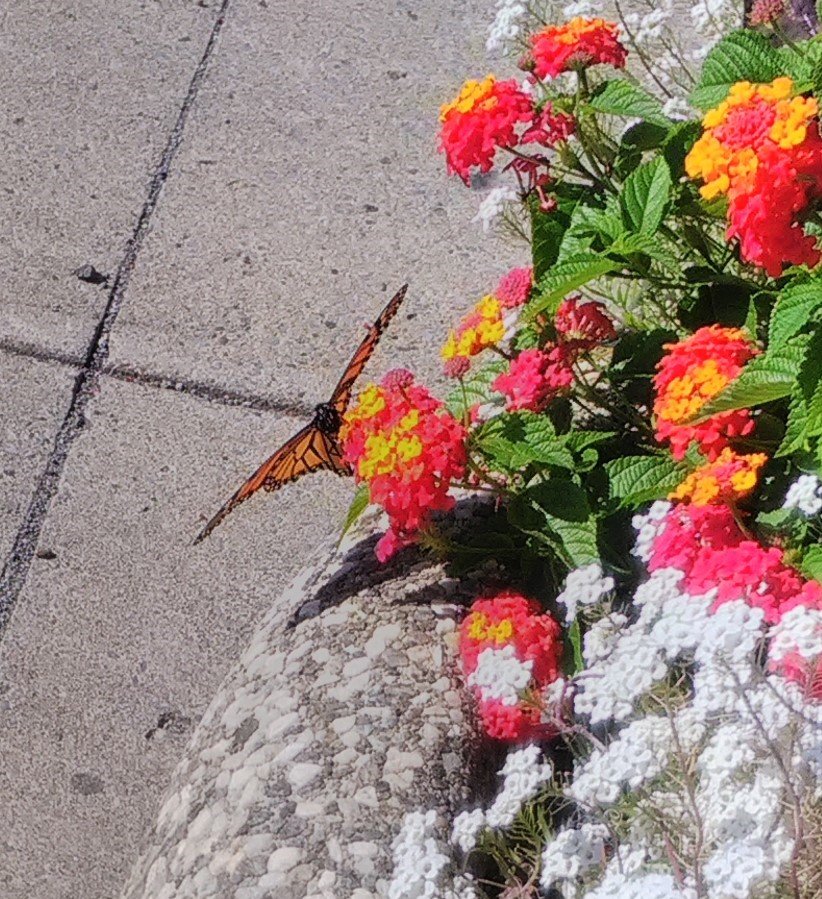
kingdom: Animalia
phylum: Arthropoda
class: Insecta
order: Lepidoptera
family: Nymphalidae
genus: Danaus
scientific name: Danaus plexippus
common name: Monarch
